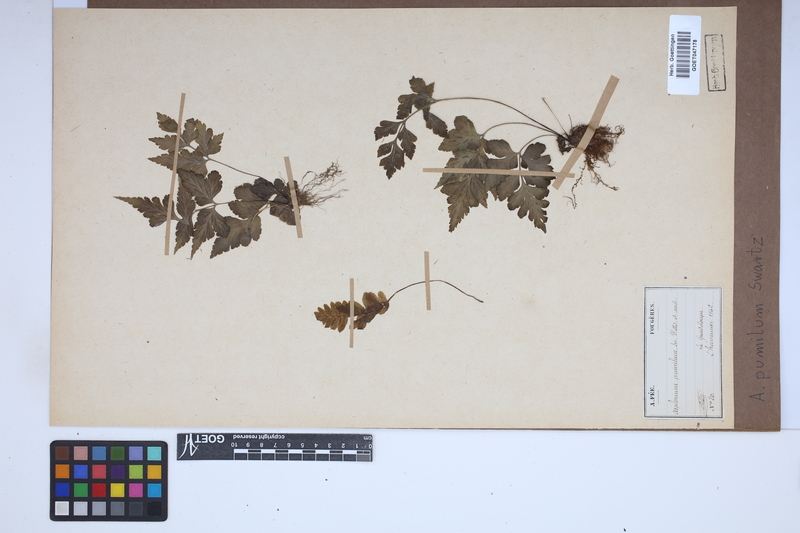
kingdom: Plantae
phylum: Tracheophyta
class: Polypodiopsida
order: Polypodiales
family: Aspleniaceae
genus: Asplenium
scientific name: Asplenium pumilum
